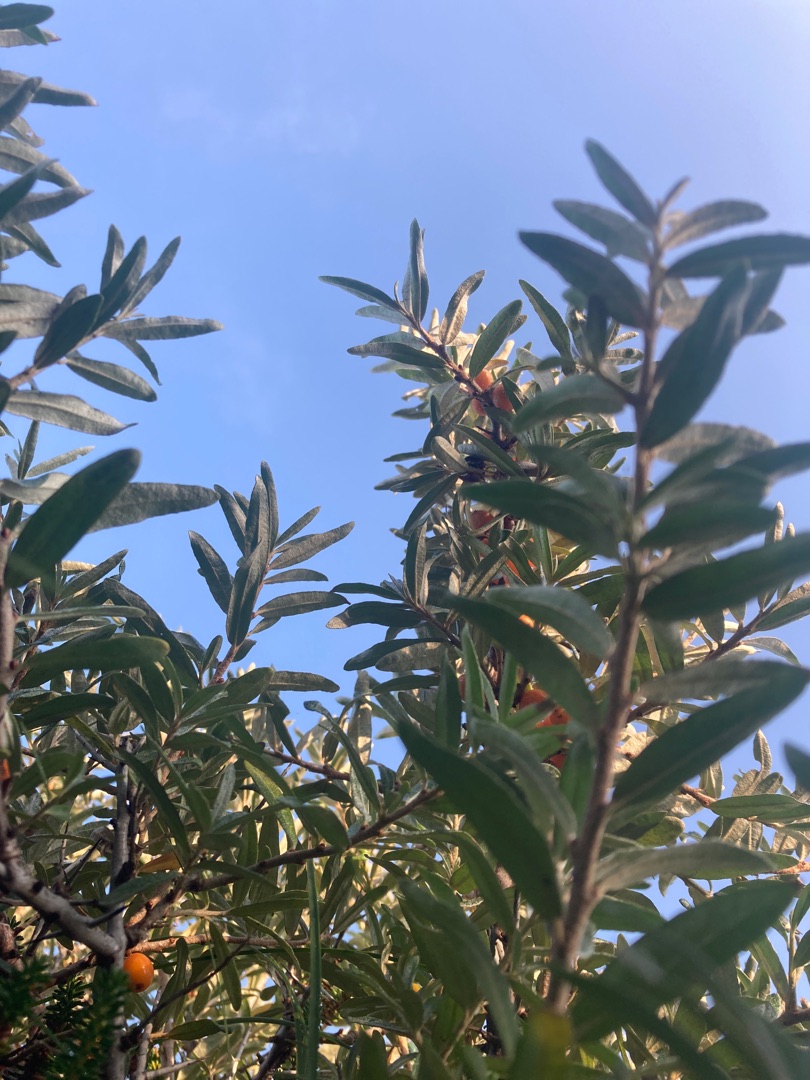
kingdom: Plantae
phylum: Tracheophyta
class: Magnoliopsida
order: Rosales
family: Elaeagnaceae
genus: Hippophae
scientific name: Hippophae rhamnoides
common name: Havtorn
